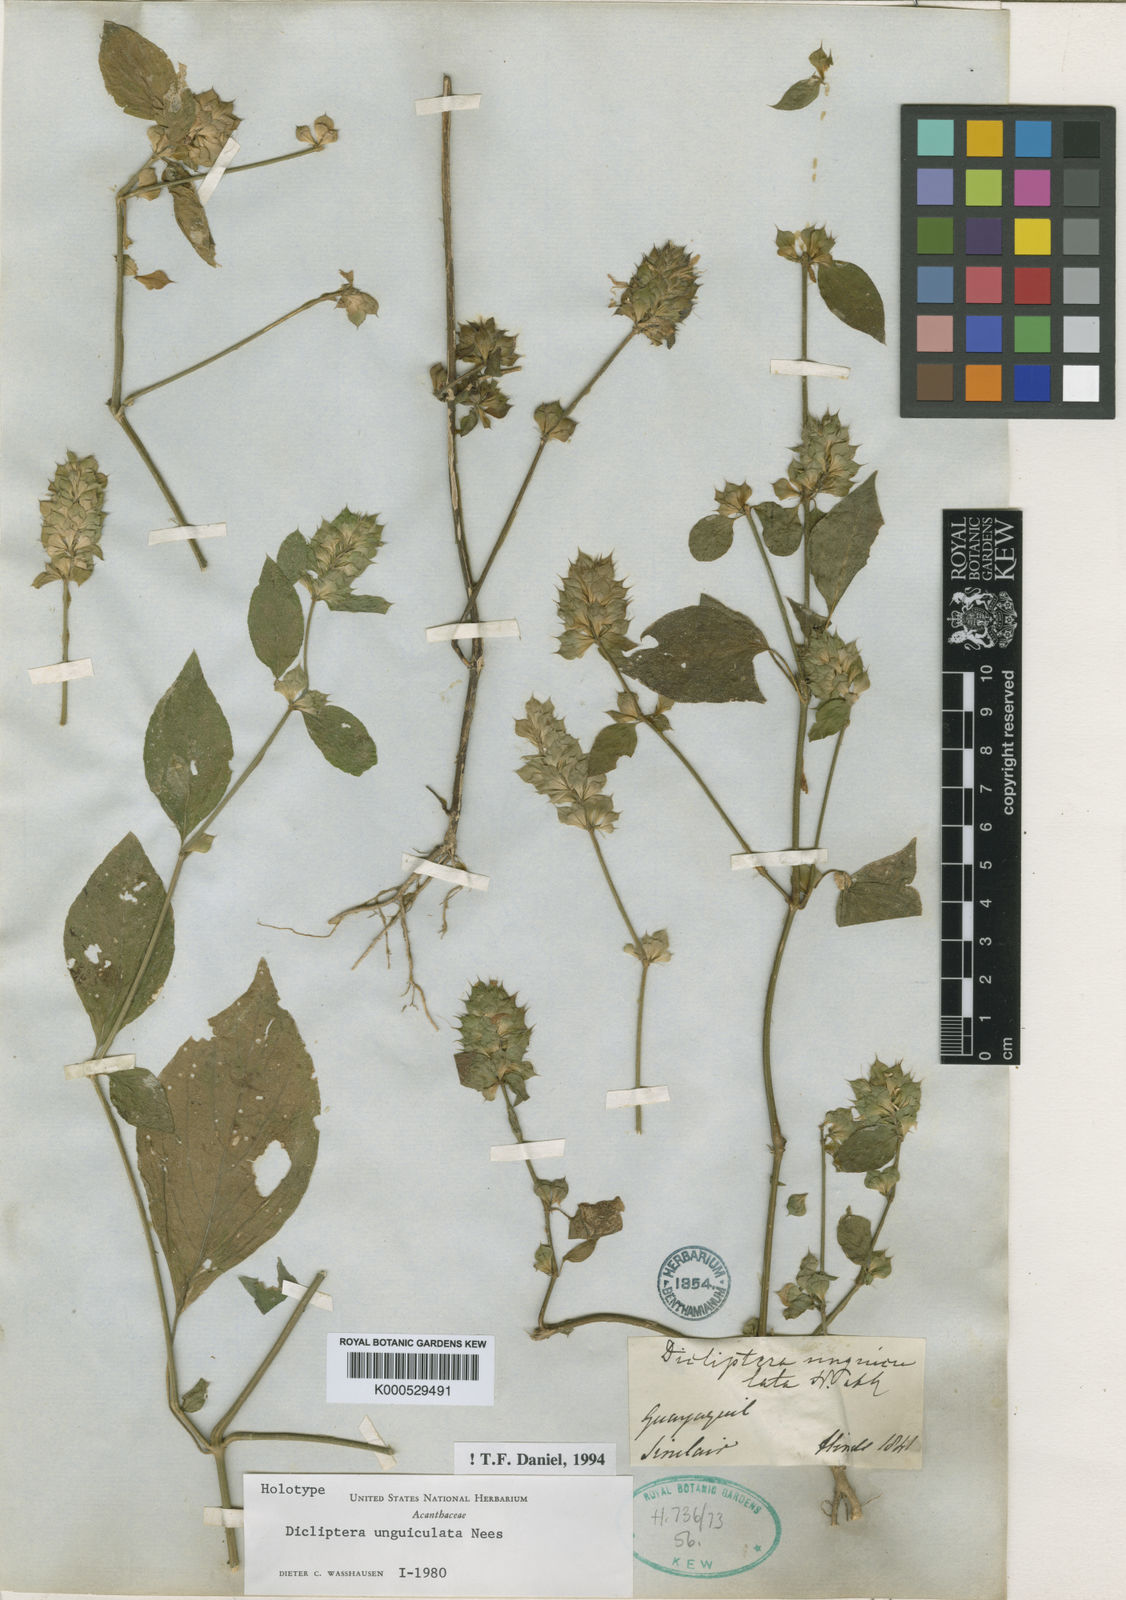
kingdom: Plantae
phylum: Tracheophyta
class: Magnoliopsida
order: Lamiales
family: Acanthaceae
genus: Dicliptera
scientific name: Dicliptera unguiculata
